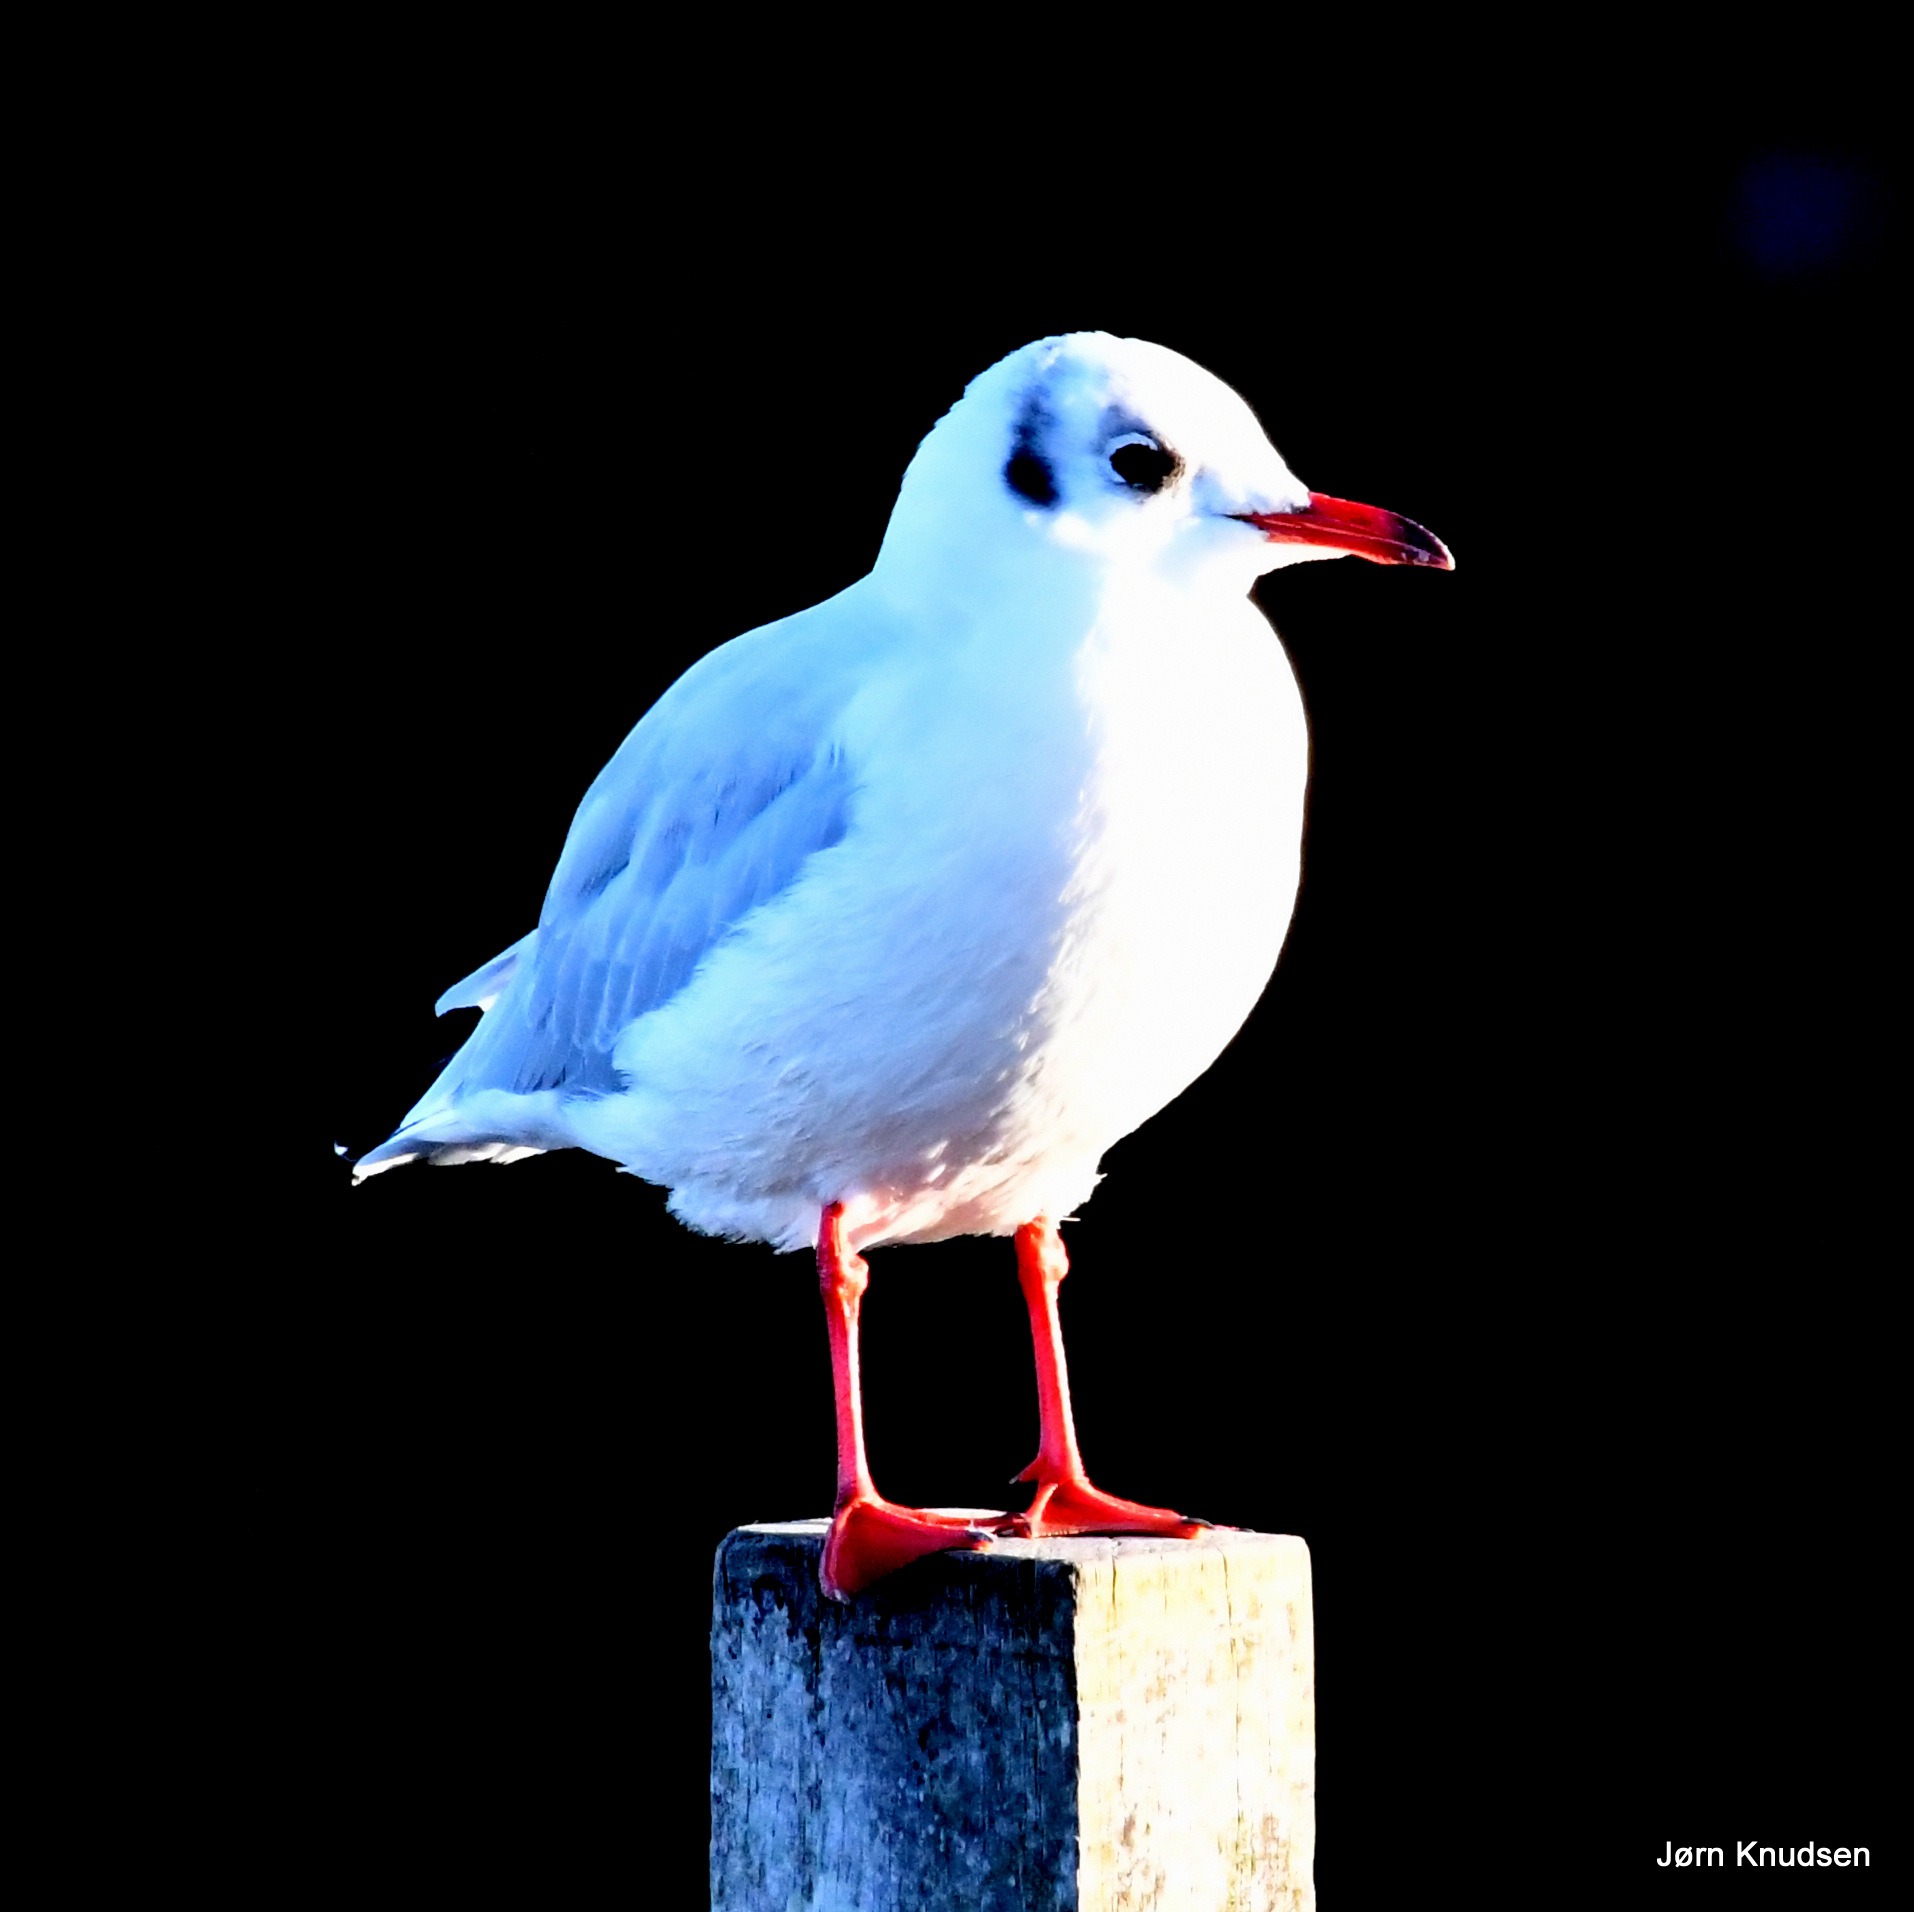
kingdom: Animalia
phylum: Chordata
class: Aves
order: Charadriiformes
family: Laridae
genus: Chroicocephalus
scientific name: Chroicocephalus ridibundus
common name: Hættemåge
